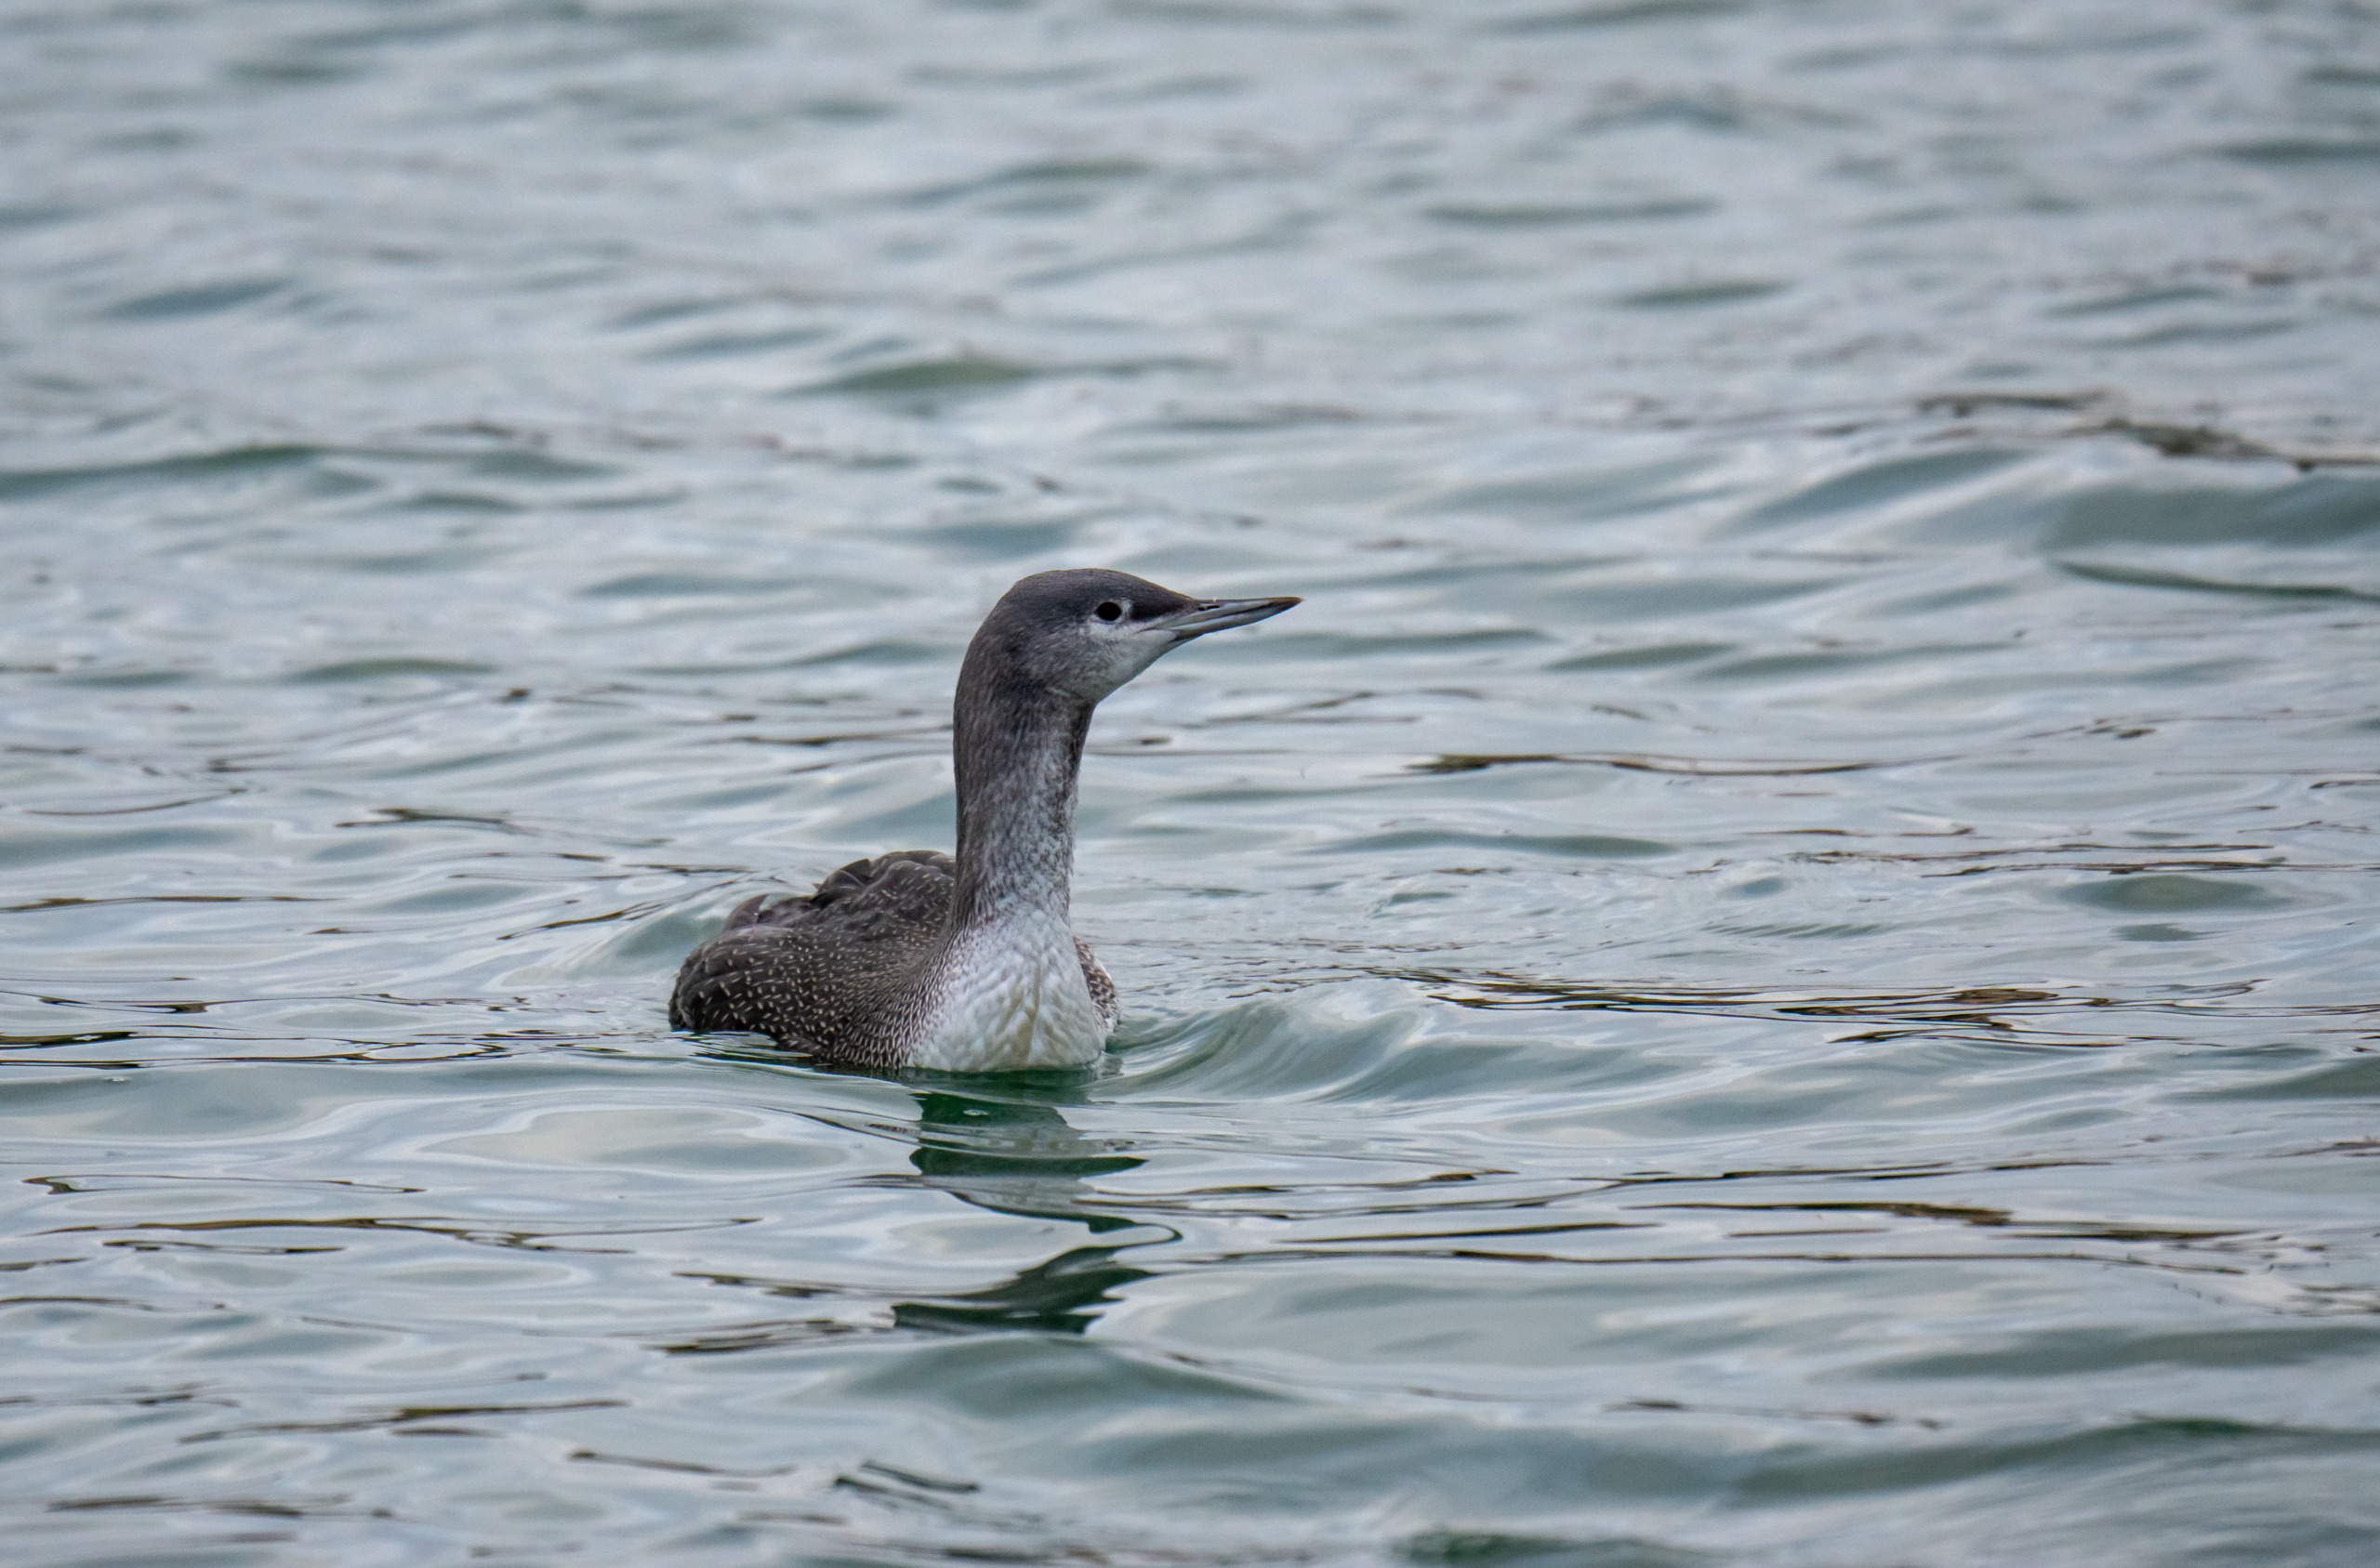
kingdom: Animalia
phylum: Chordata
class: Aves
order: Gaviiformes
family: Gaviidae
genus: Gavia
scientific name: Gavia stellata
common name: Rødstrubet lom
